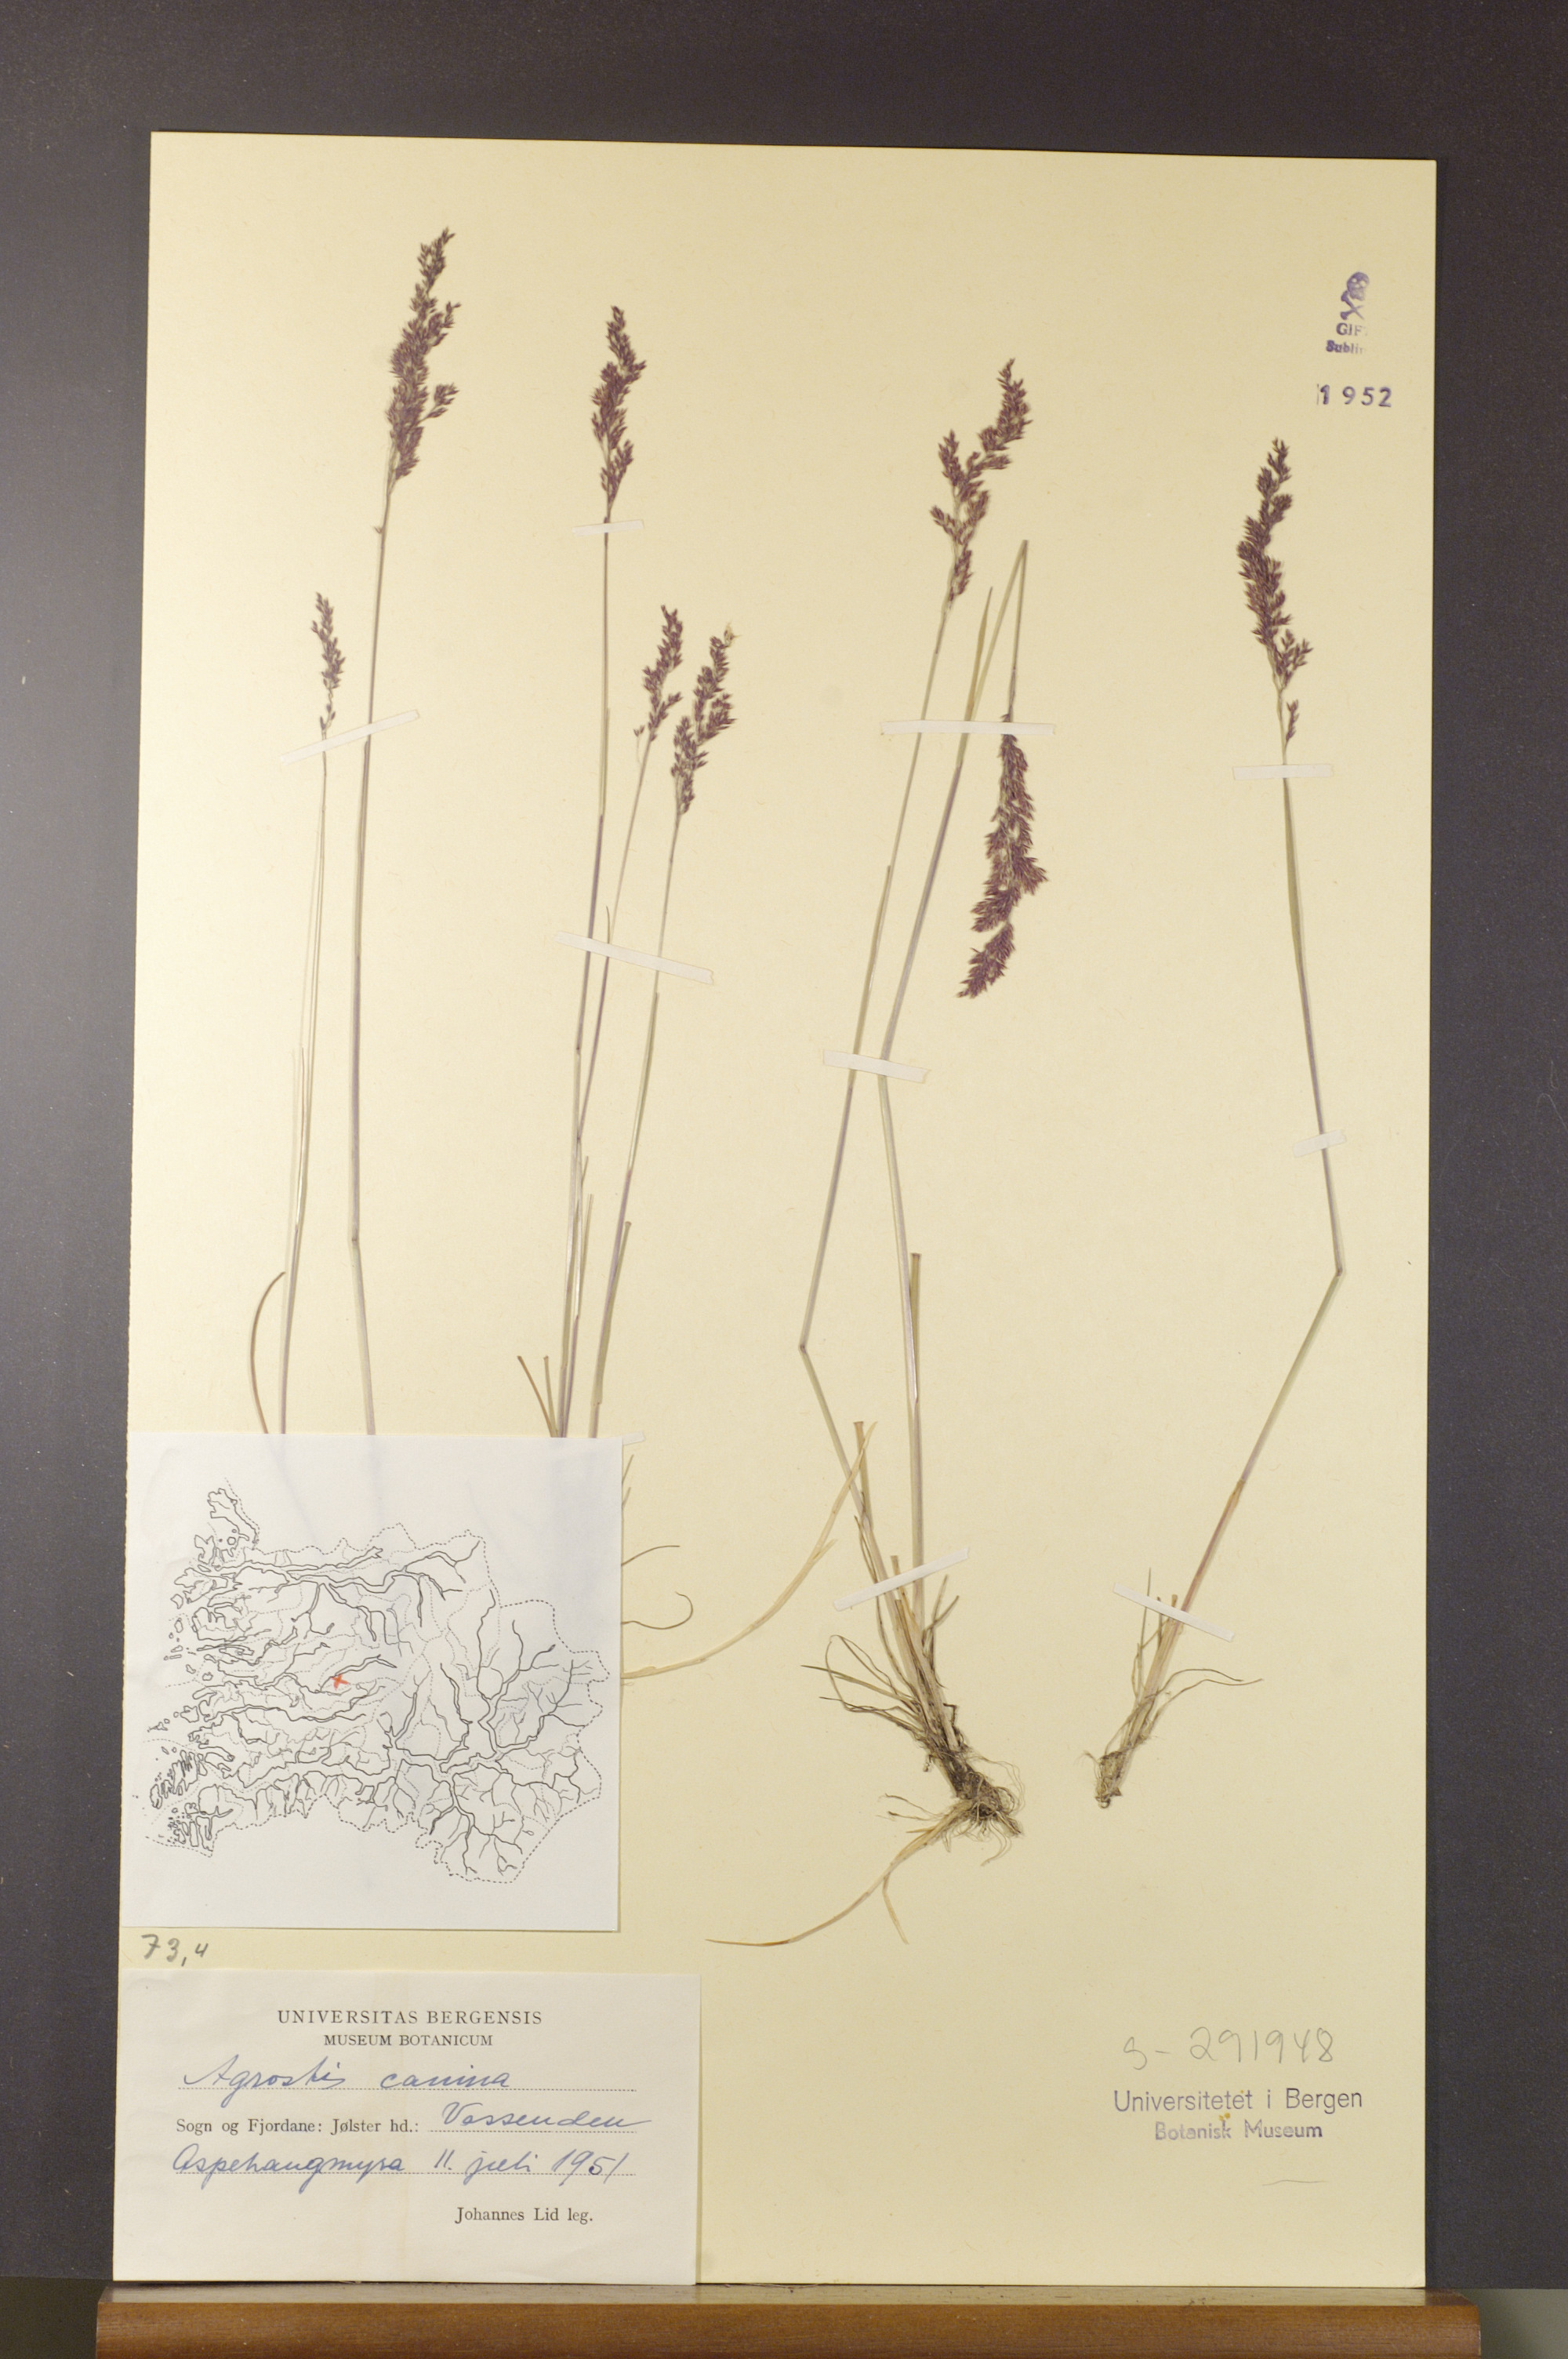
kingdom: Plantae
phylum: Tracheophyta
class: Liliopsida
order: Poales
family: Poaceae
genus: Agrostis
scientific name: Agrostis canina
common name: Velvet bent
